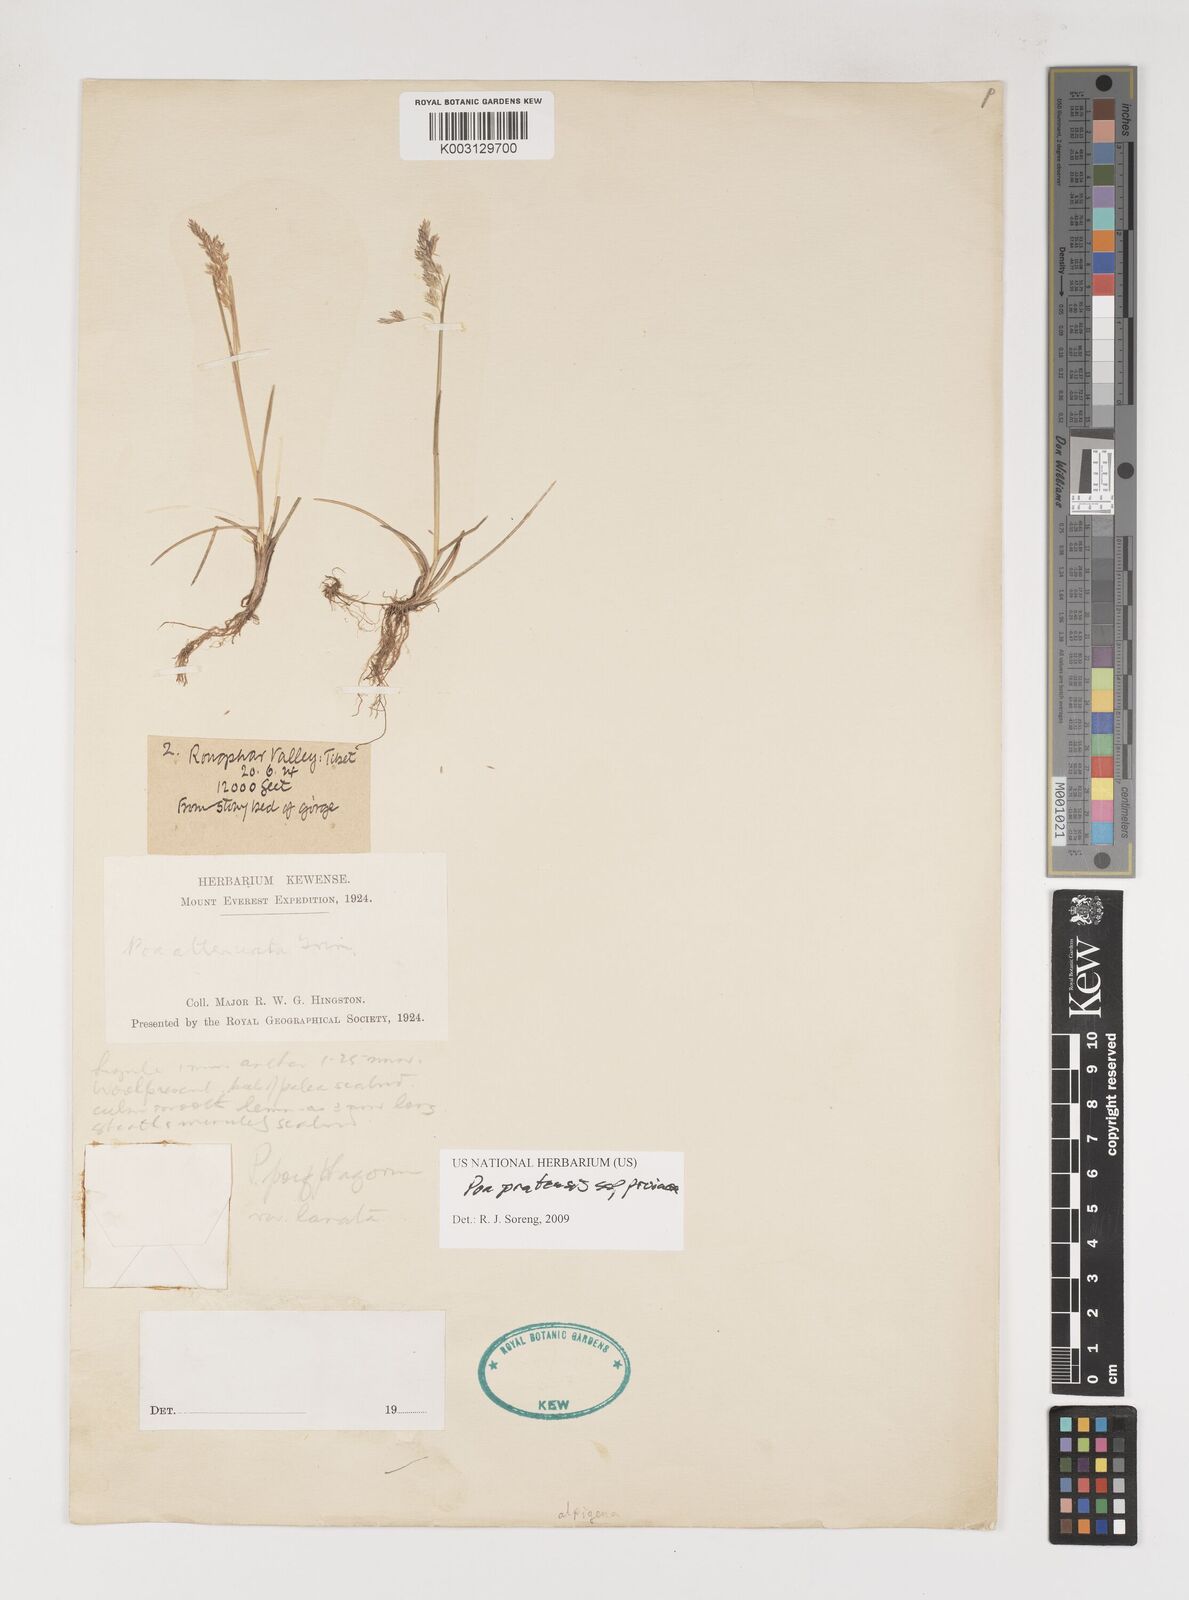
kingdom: Plantae
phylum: Tracheophyta
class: Liliopsida
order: Poales
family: Poaceae
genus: Poa
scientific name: Poa tianschanica
